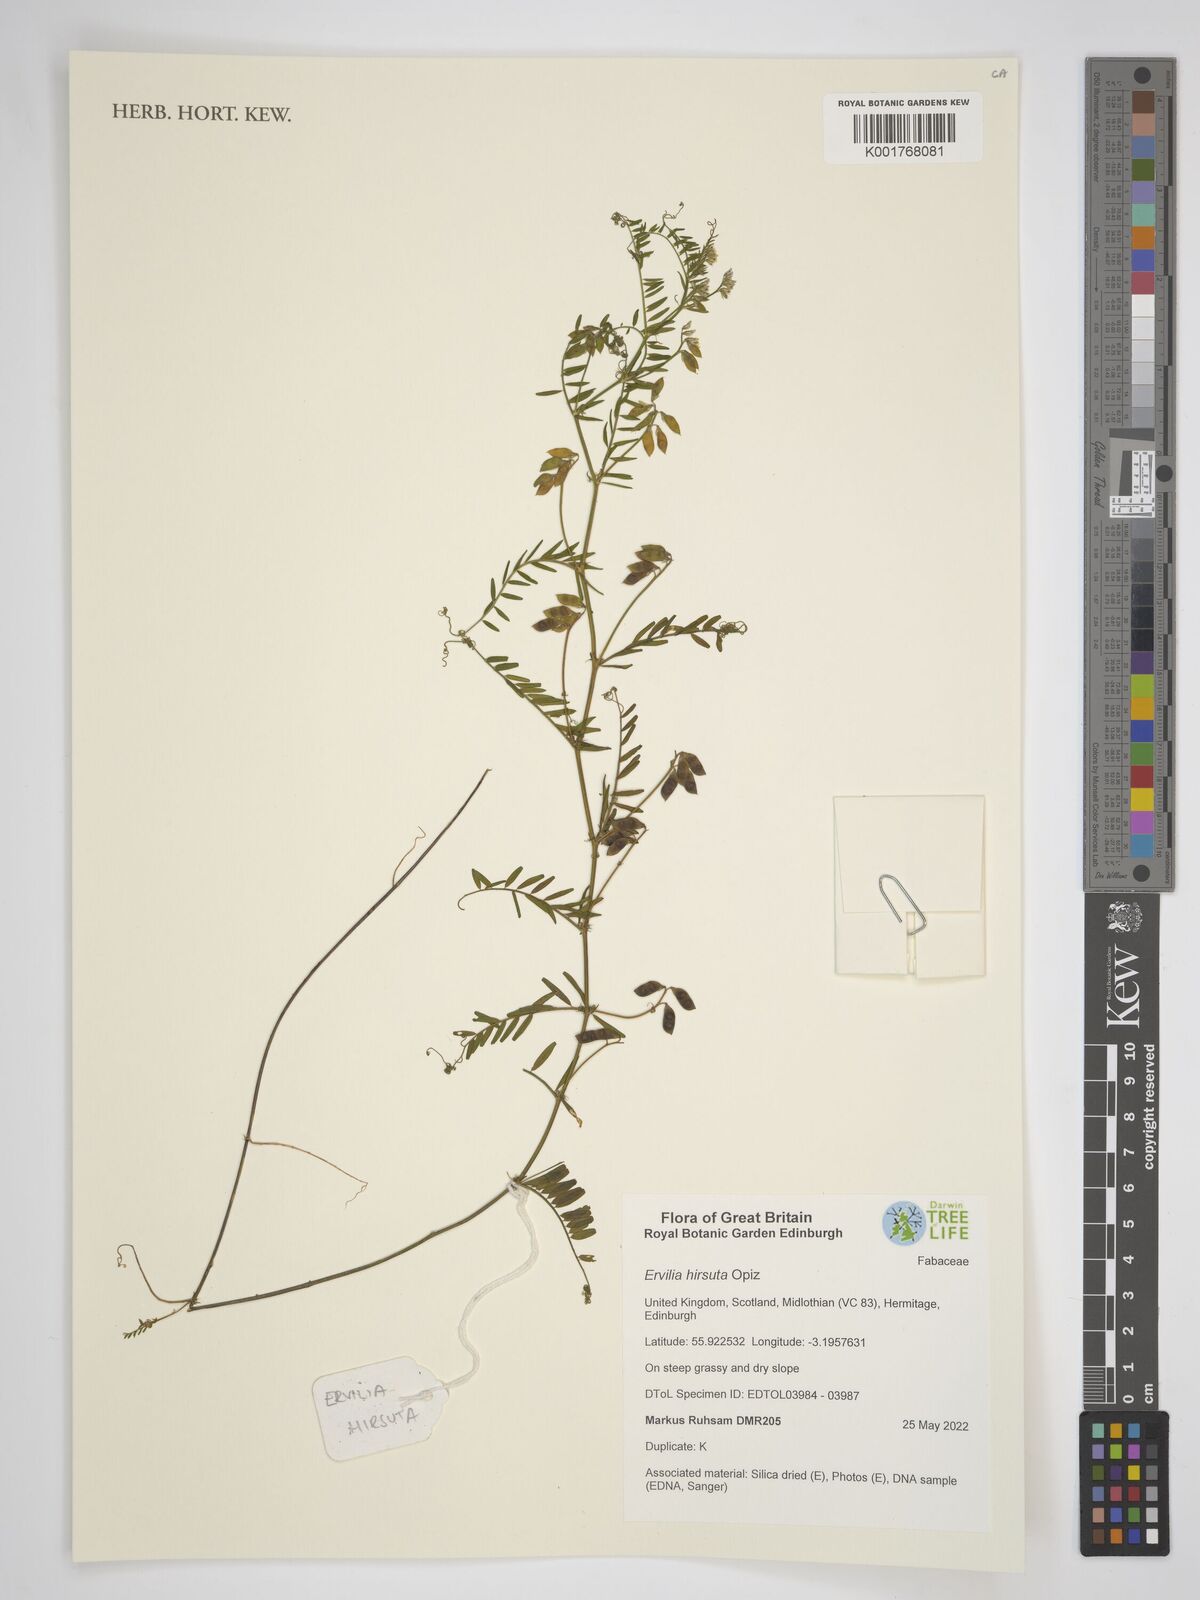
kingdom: Plantae
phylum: Tracheophyta
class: Magnoliopsida
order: Fabales
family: Fabaceae
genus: Vicia
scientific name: Vicia hirsuta
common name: Tiny vetch
